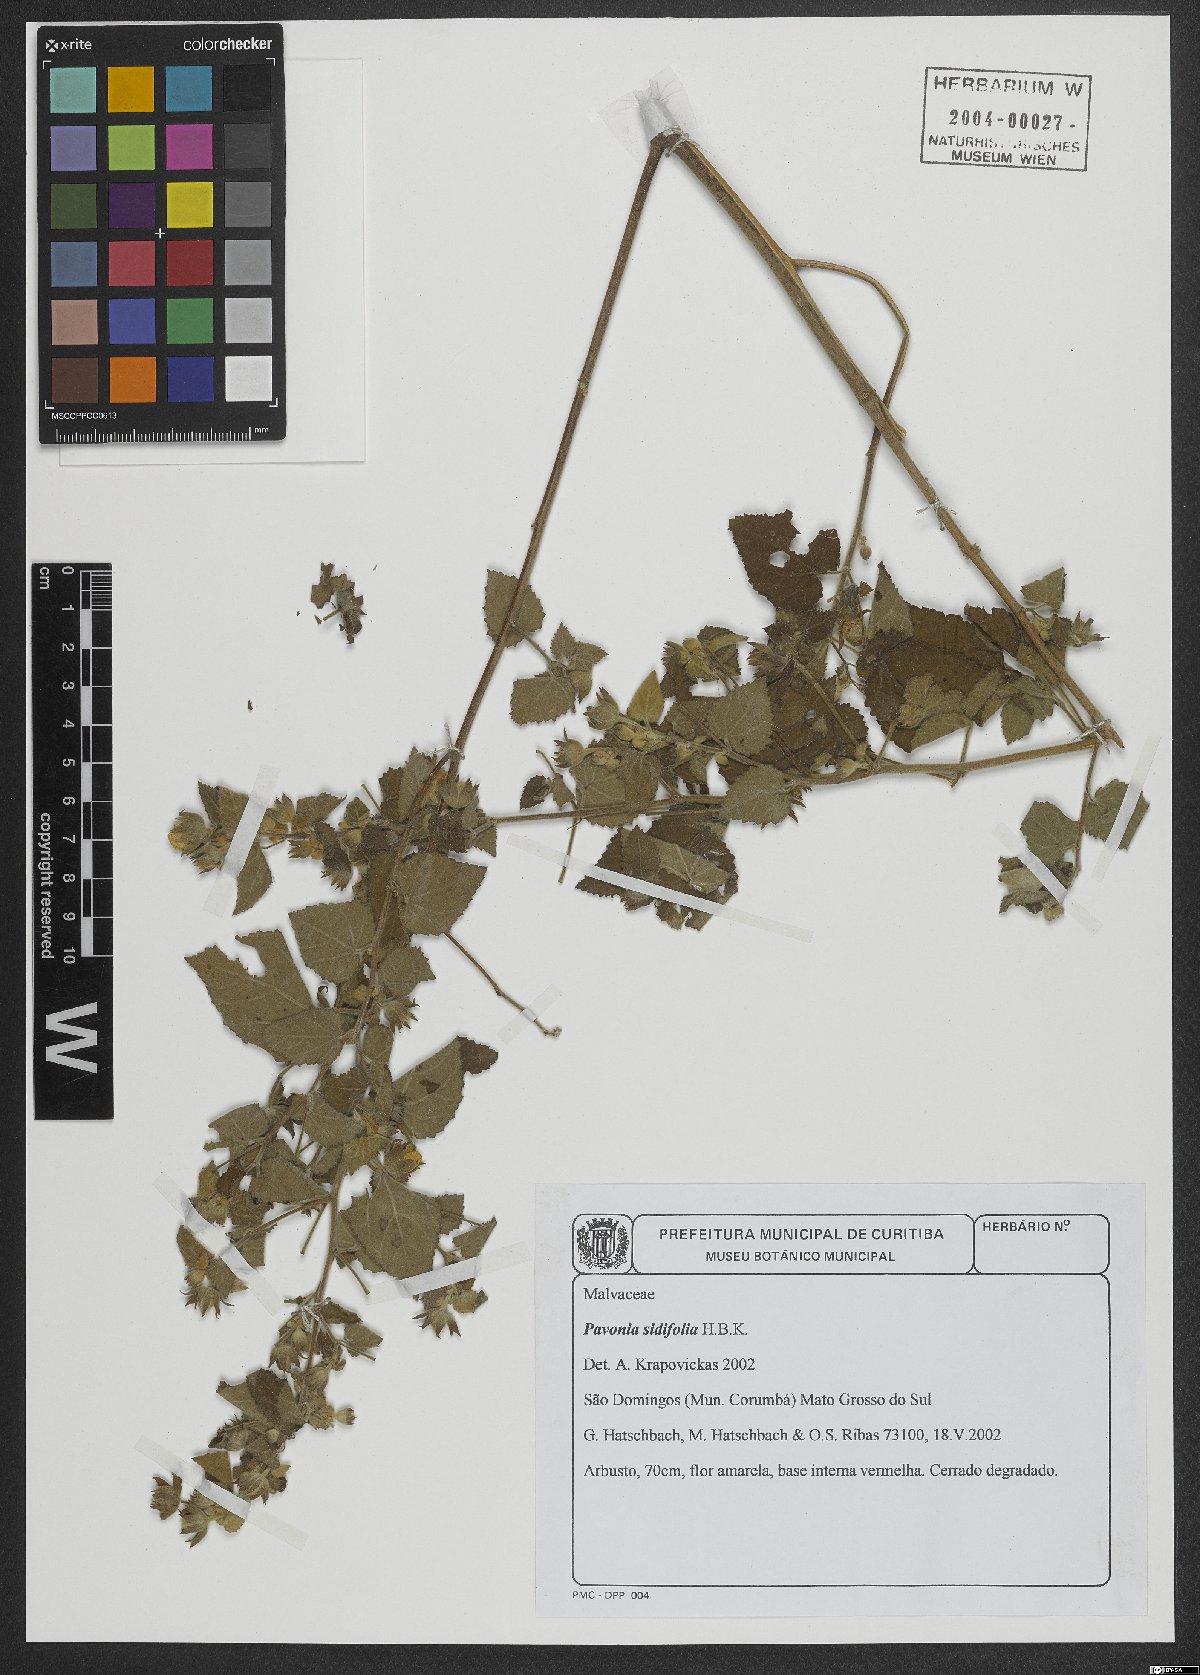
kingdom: Plantae
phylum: Tracheophyta
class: Magnoliopsida
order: Malvales
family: Malvaceae
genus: Pavonia
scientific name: Pavonia sidifolia
